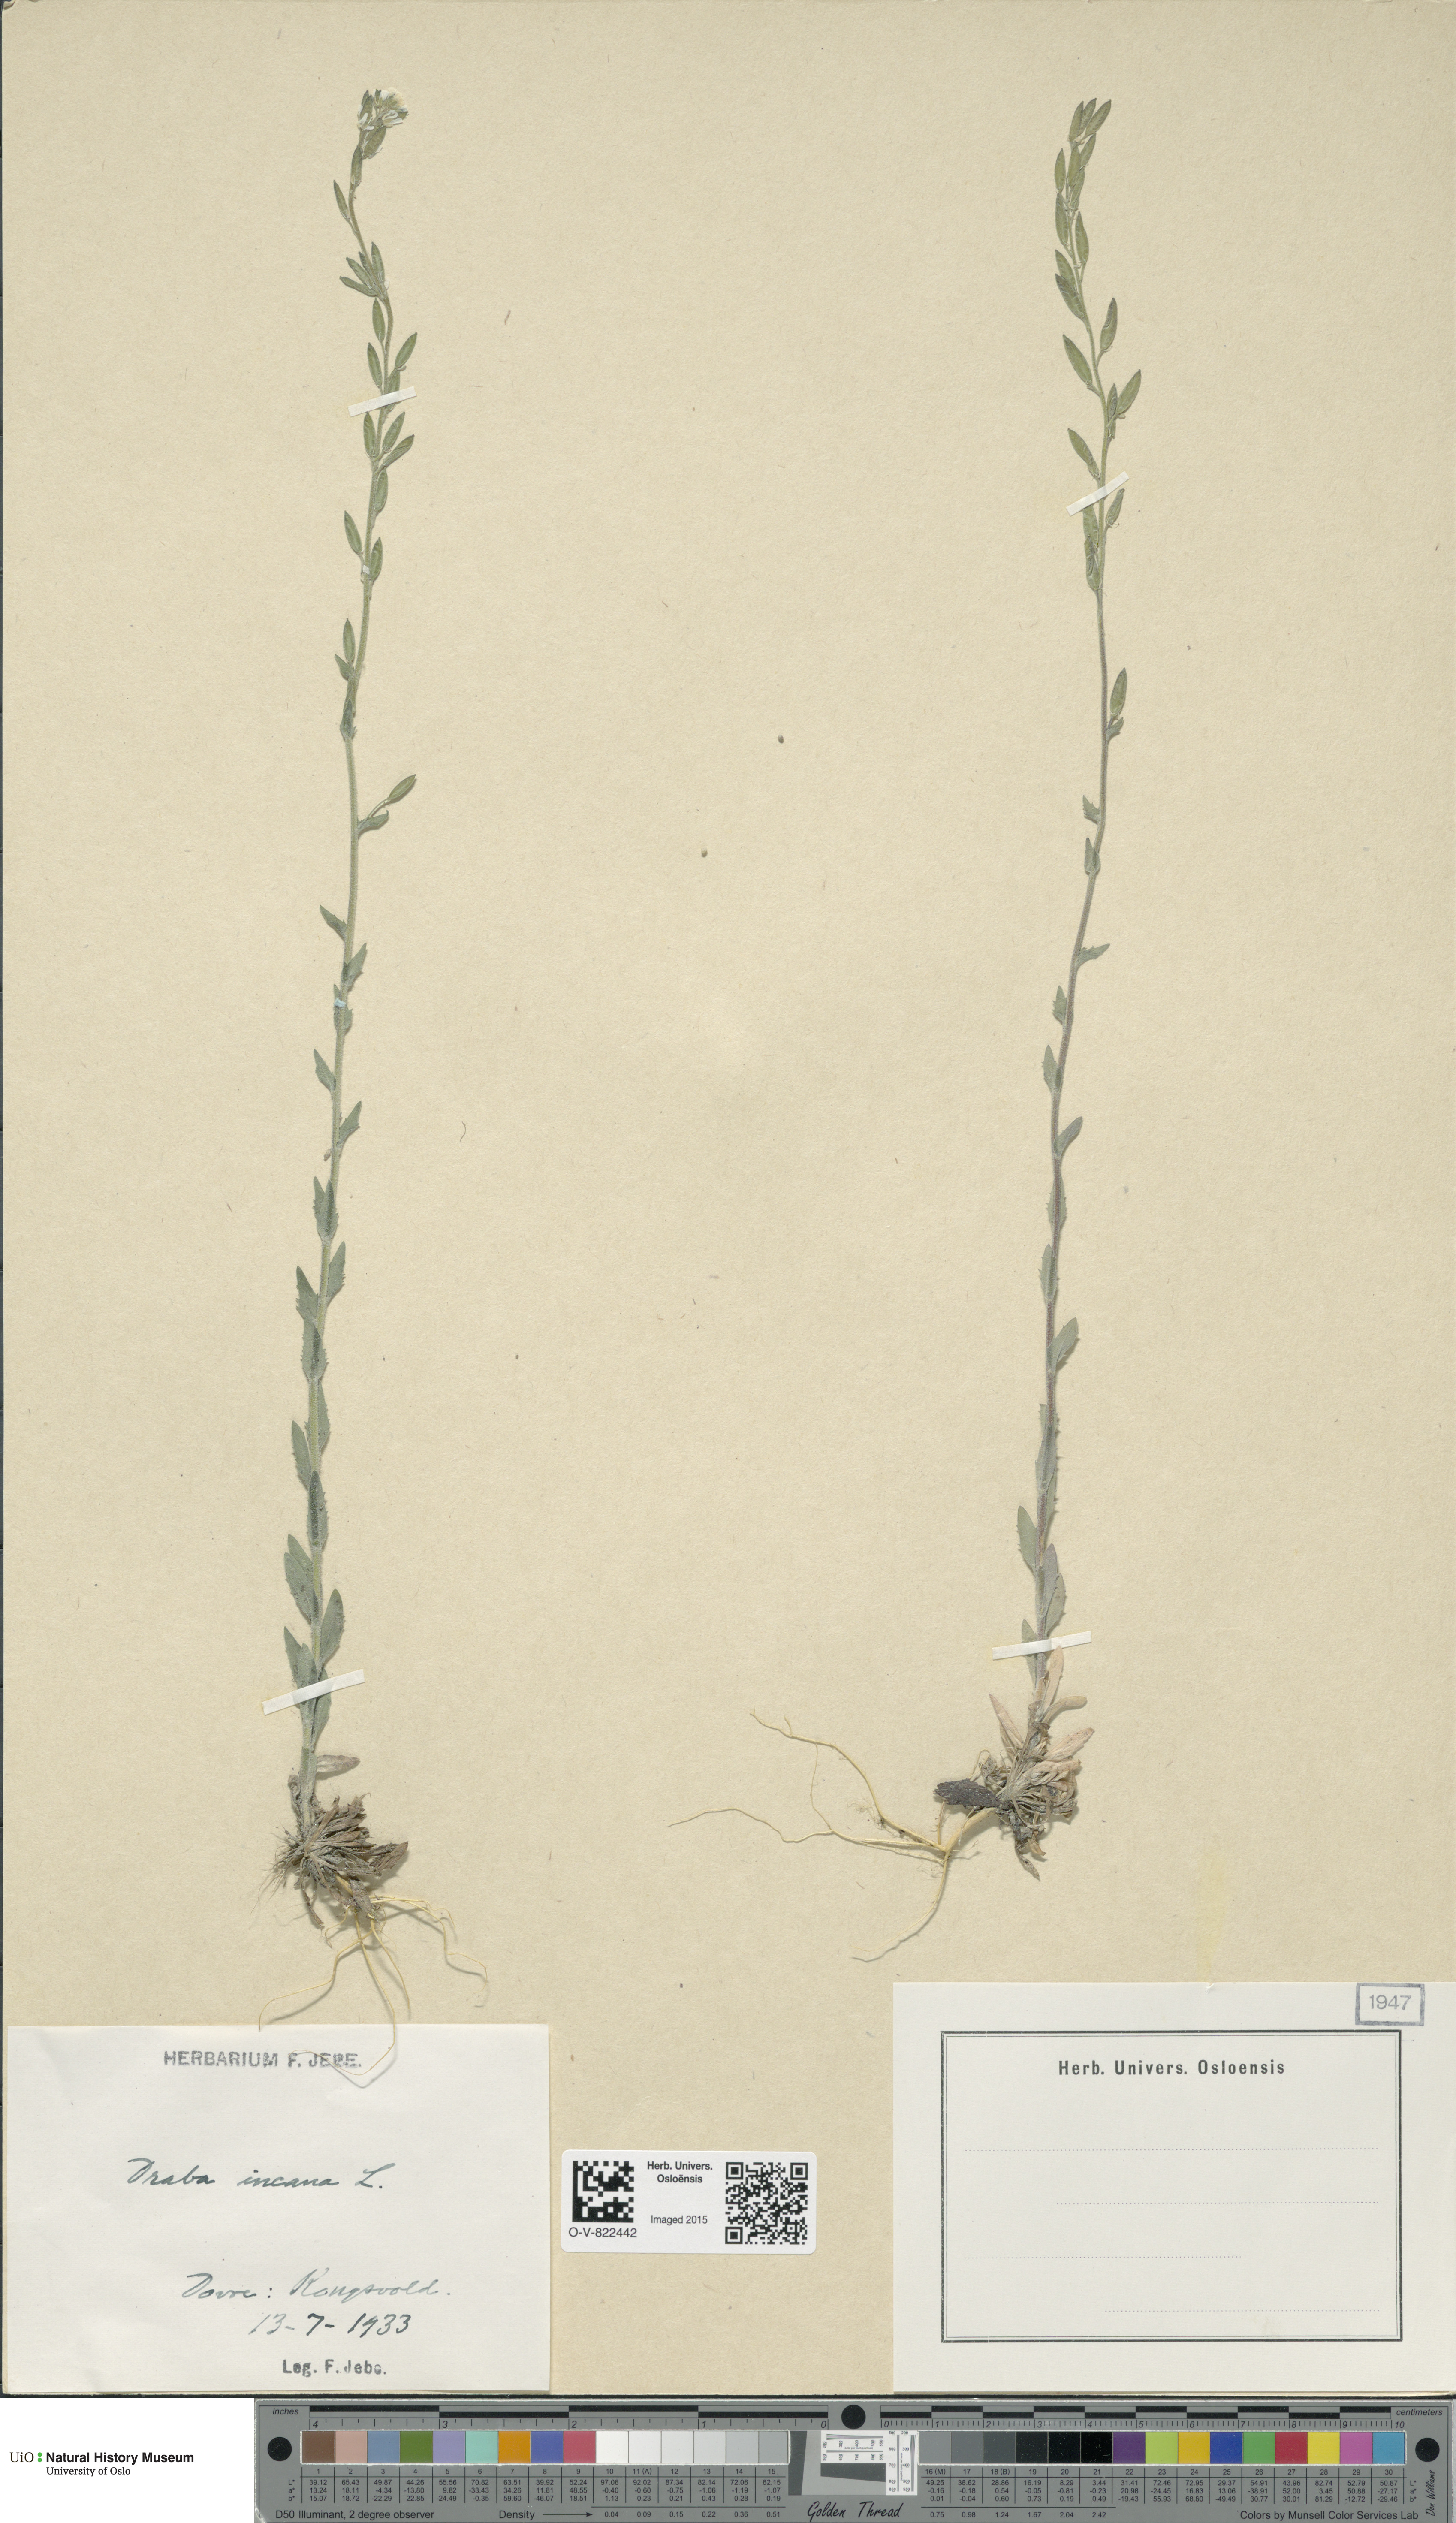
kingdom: Plantae
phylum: Tracheophyta
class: Magnoliopsida
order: Brassicales
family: Brassicaceae
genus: Draba
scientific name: Draba incana
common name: Hoary whitlow-grass
